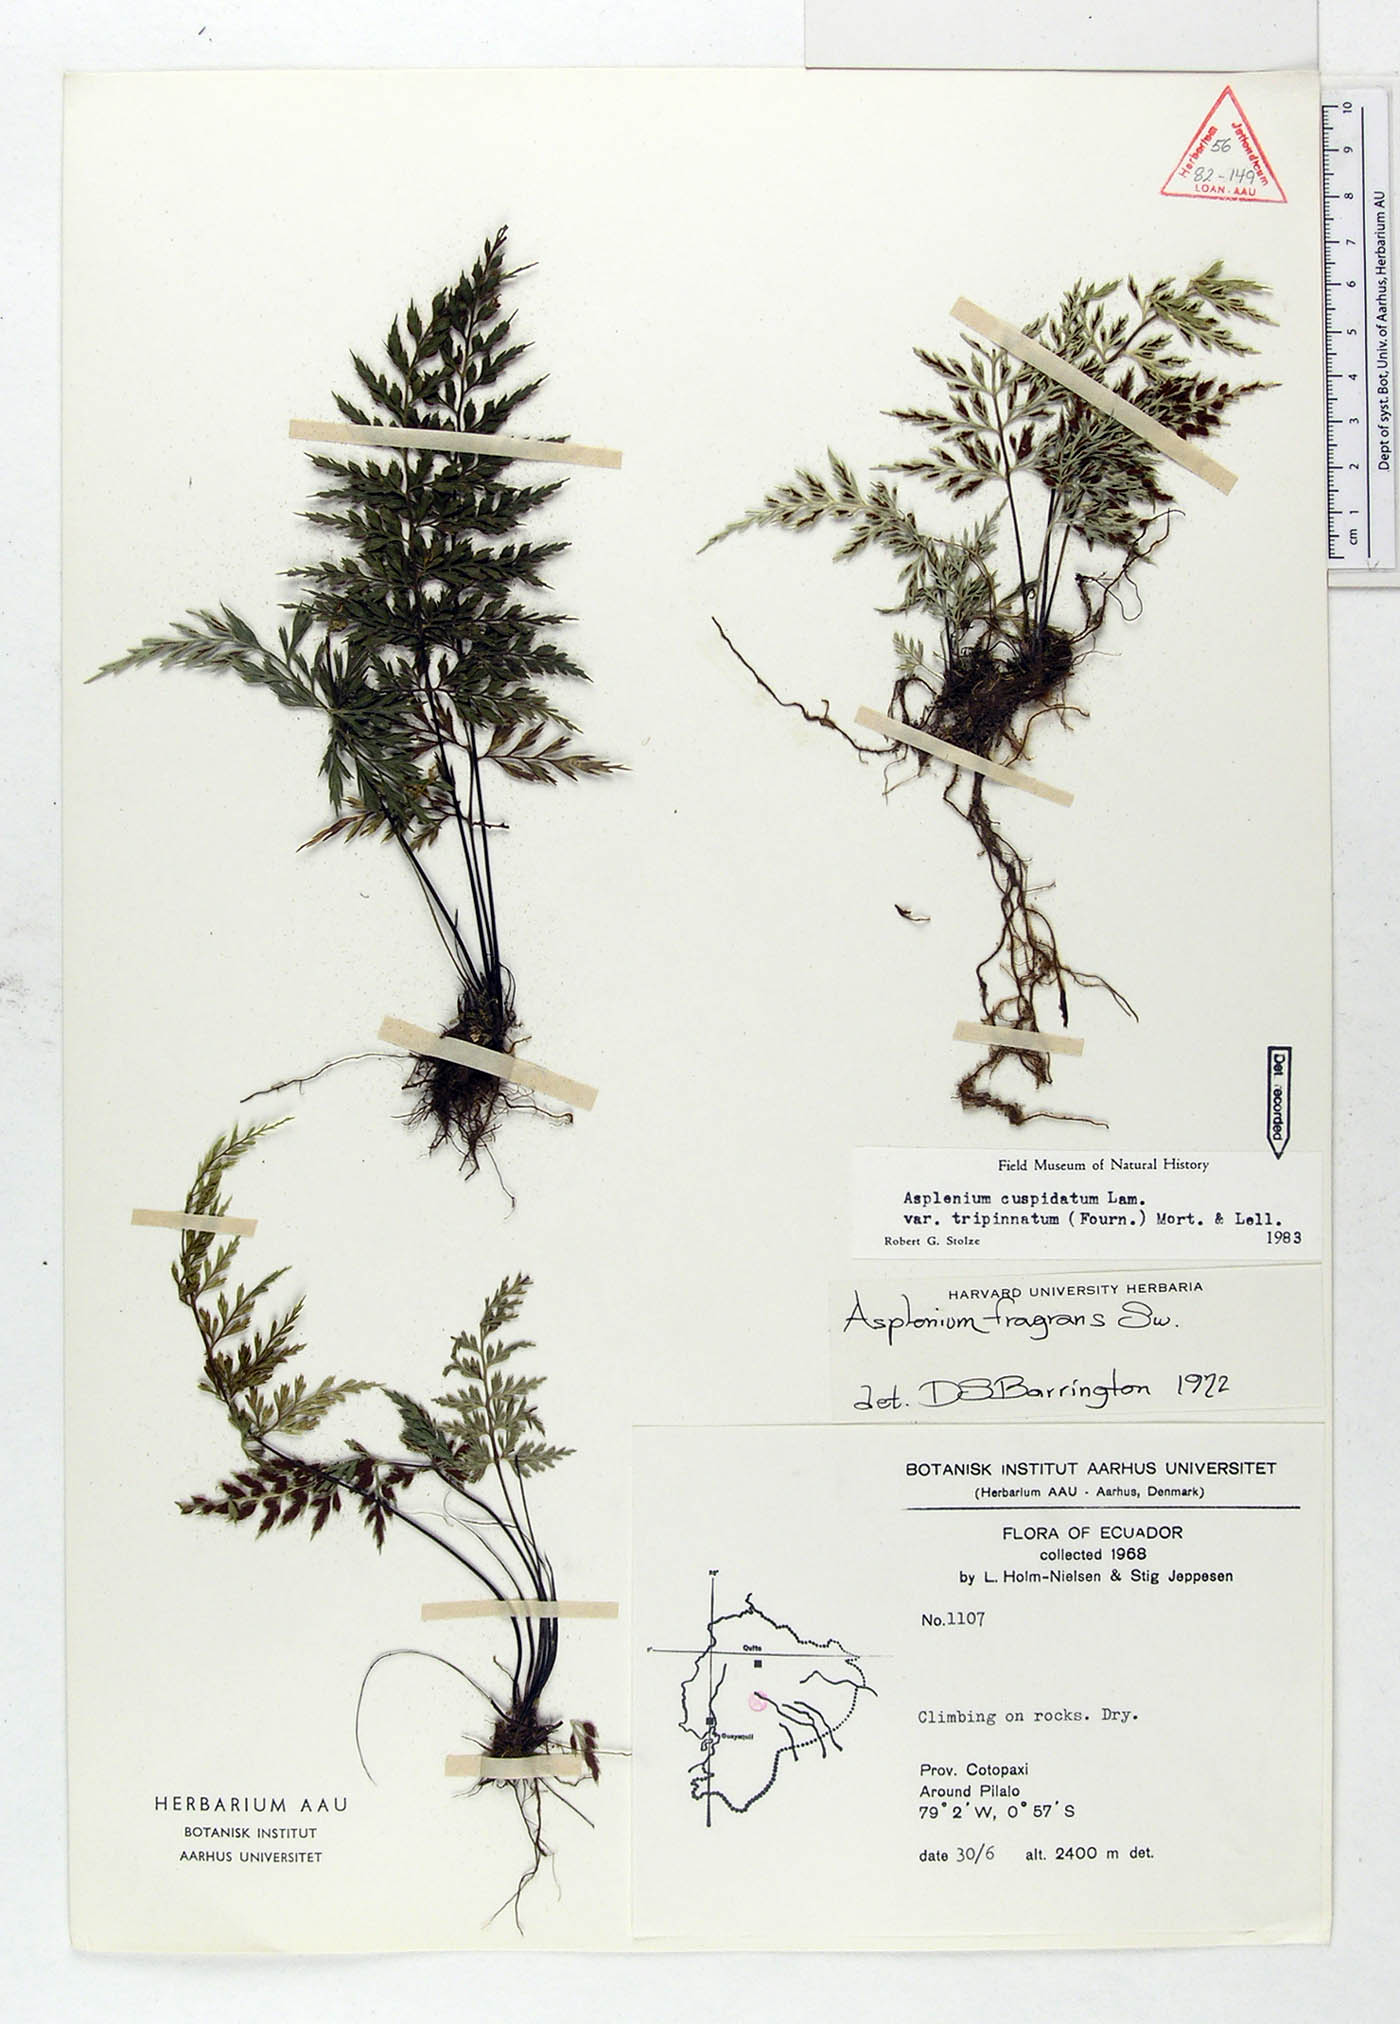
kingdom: Plantae
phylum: Tracheophyta
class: Polypodiopsida
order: Polypodiales
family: Aspleniaceae
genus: Asplenium
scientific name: Asplenium fragrans
